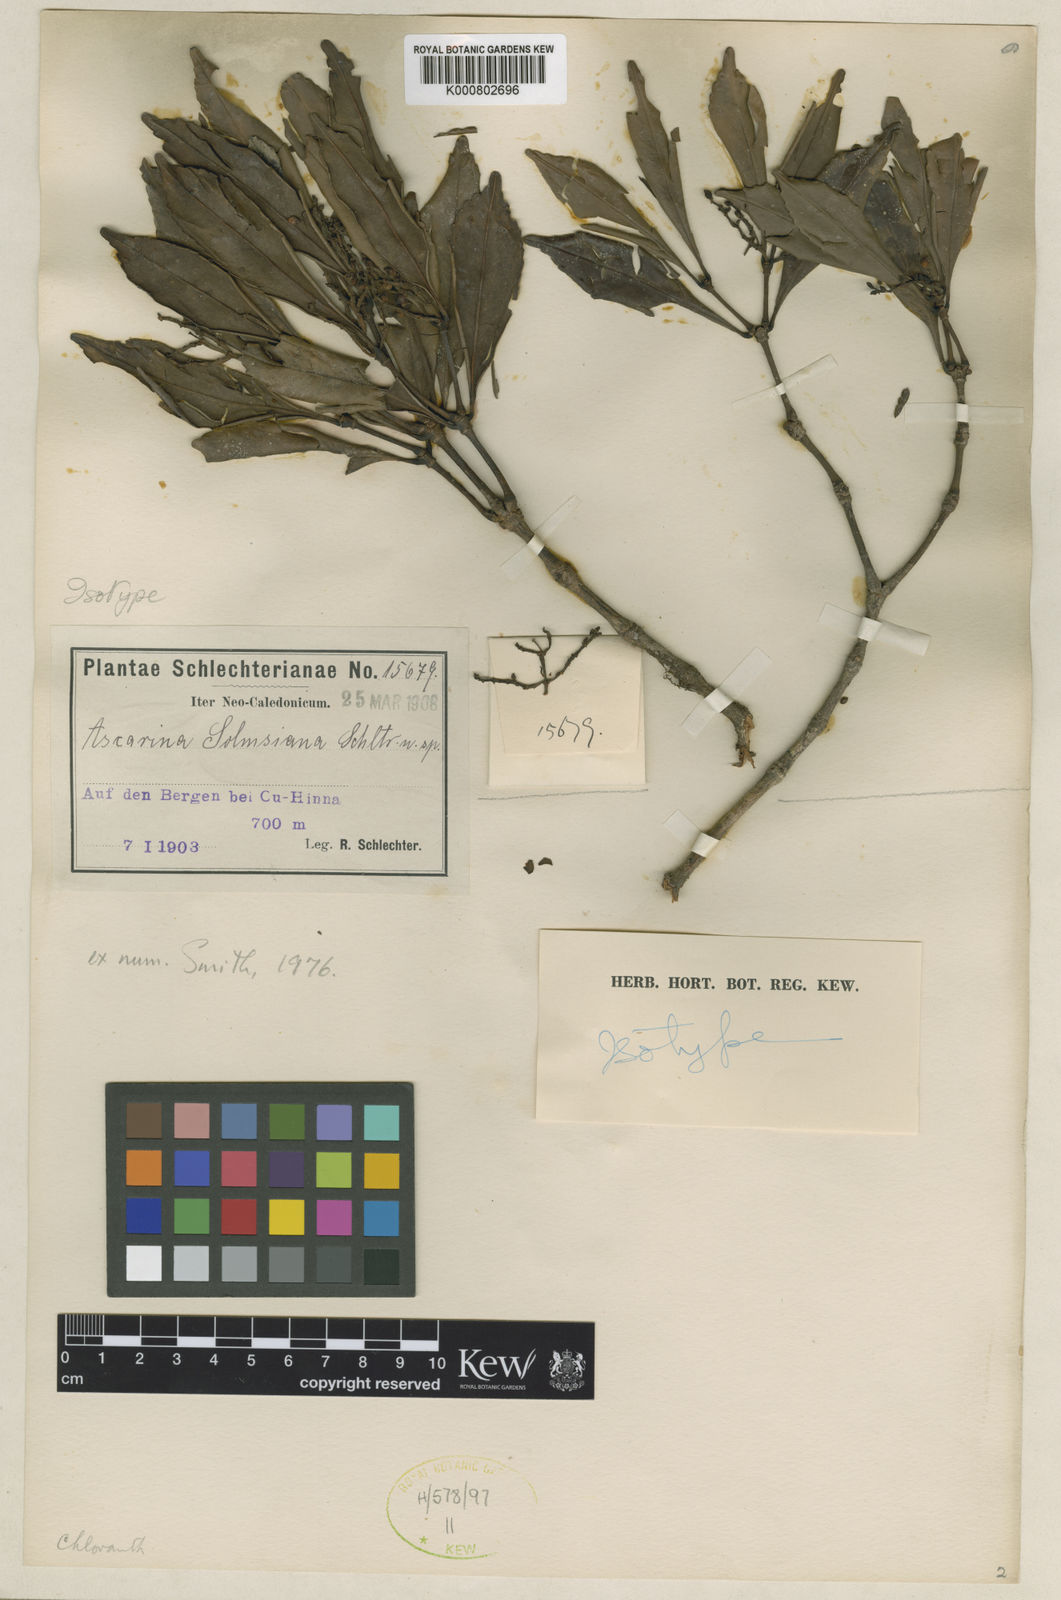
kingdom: Plantae
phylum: Tracheophyta
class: Magnoliopsida
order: Chloranthales
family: Chloranthaceae
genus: Ascarina
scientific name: Ascarina solmsiana
